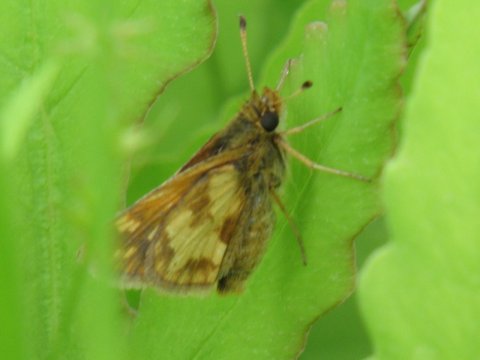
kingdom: Animalia
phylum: Arthropoda
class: Insecta
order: Lepidoptera
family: Hesperiidae
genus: Polites
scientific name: Polites coras
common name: Peck's Skipper
